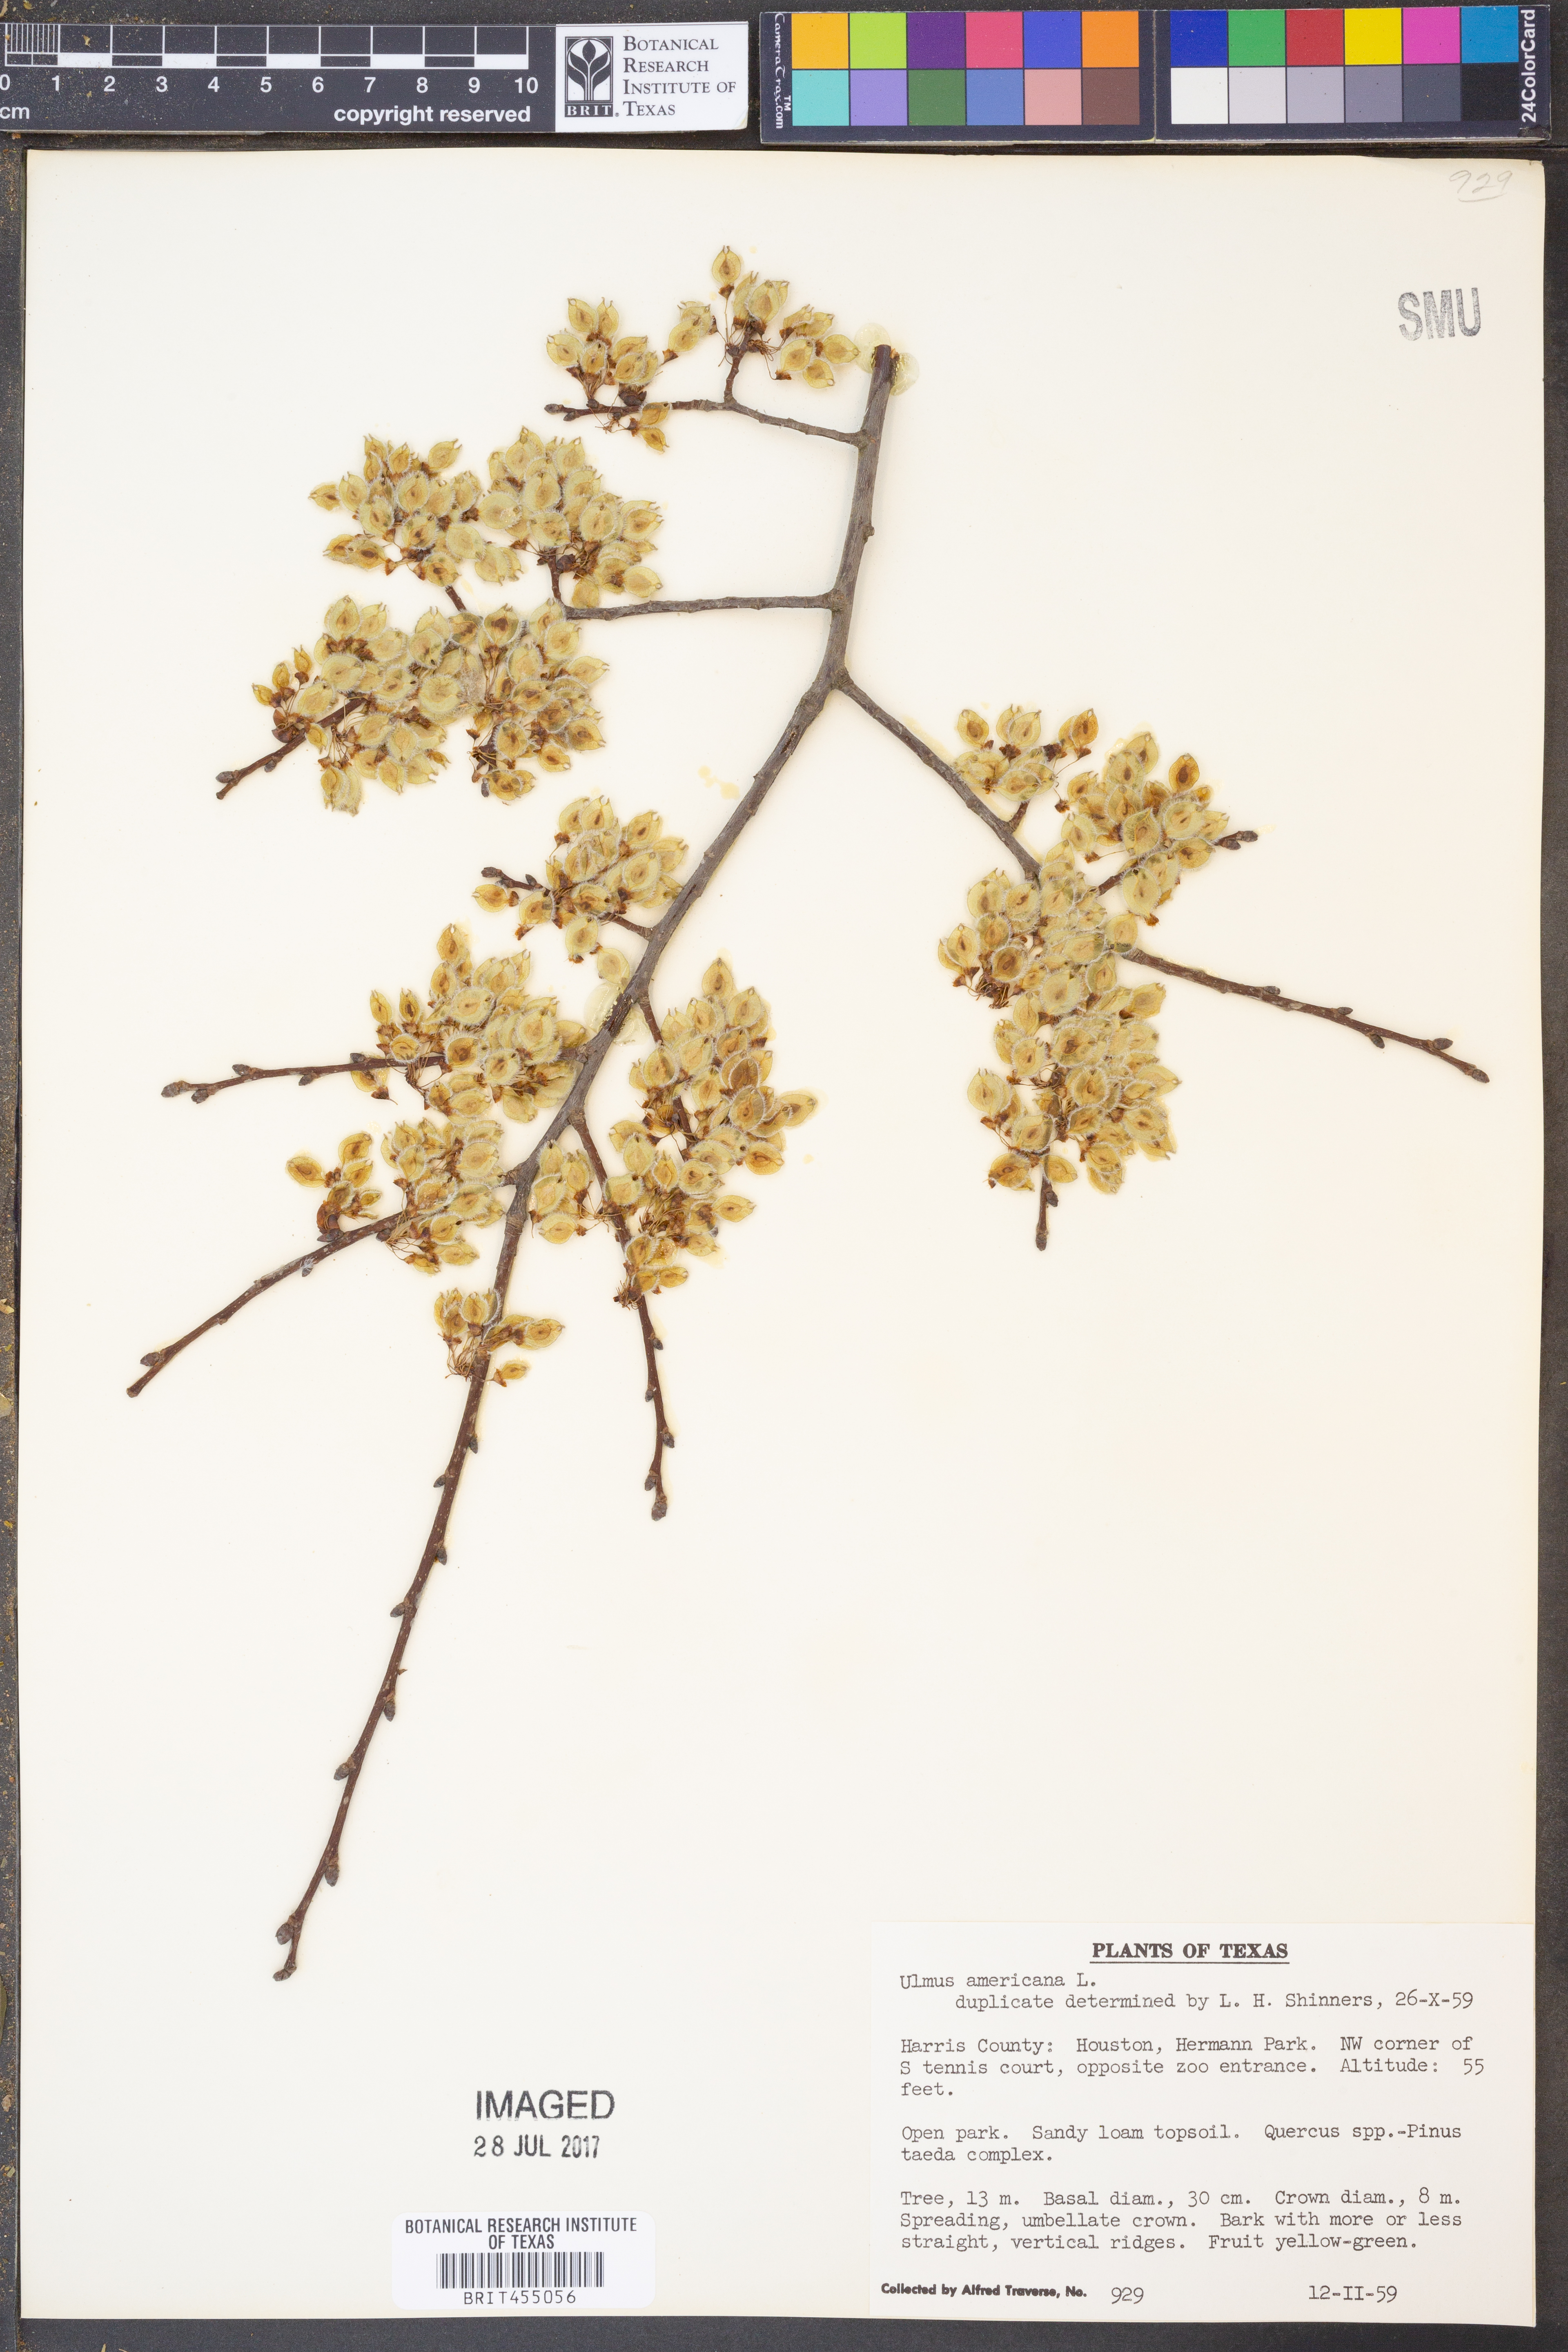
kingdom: Plantae
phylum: Tracheophyta
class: Magnoliopsida
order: Rosales
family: Ulmaceae
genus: Ulmus
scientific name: Ulmus americana
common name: American elm
